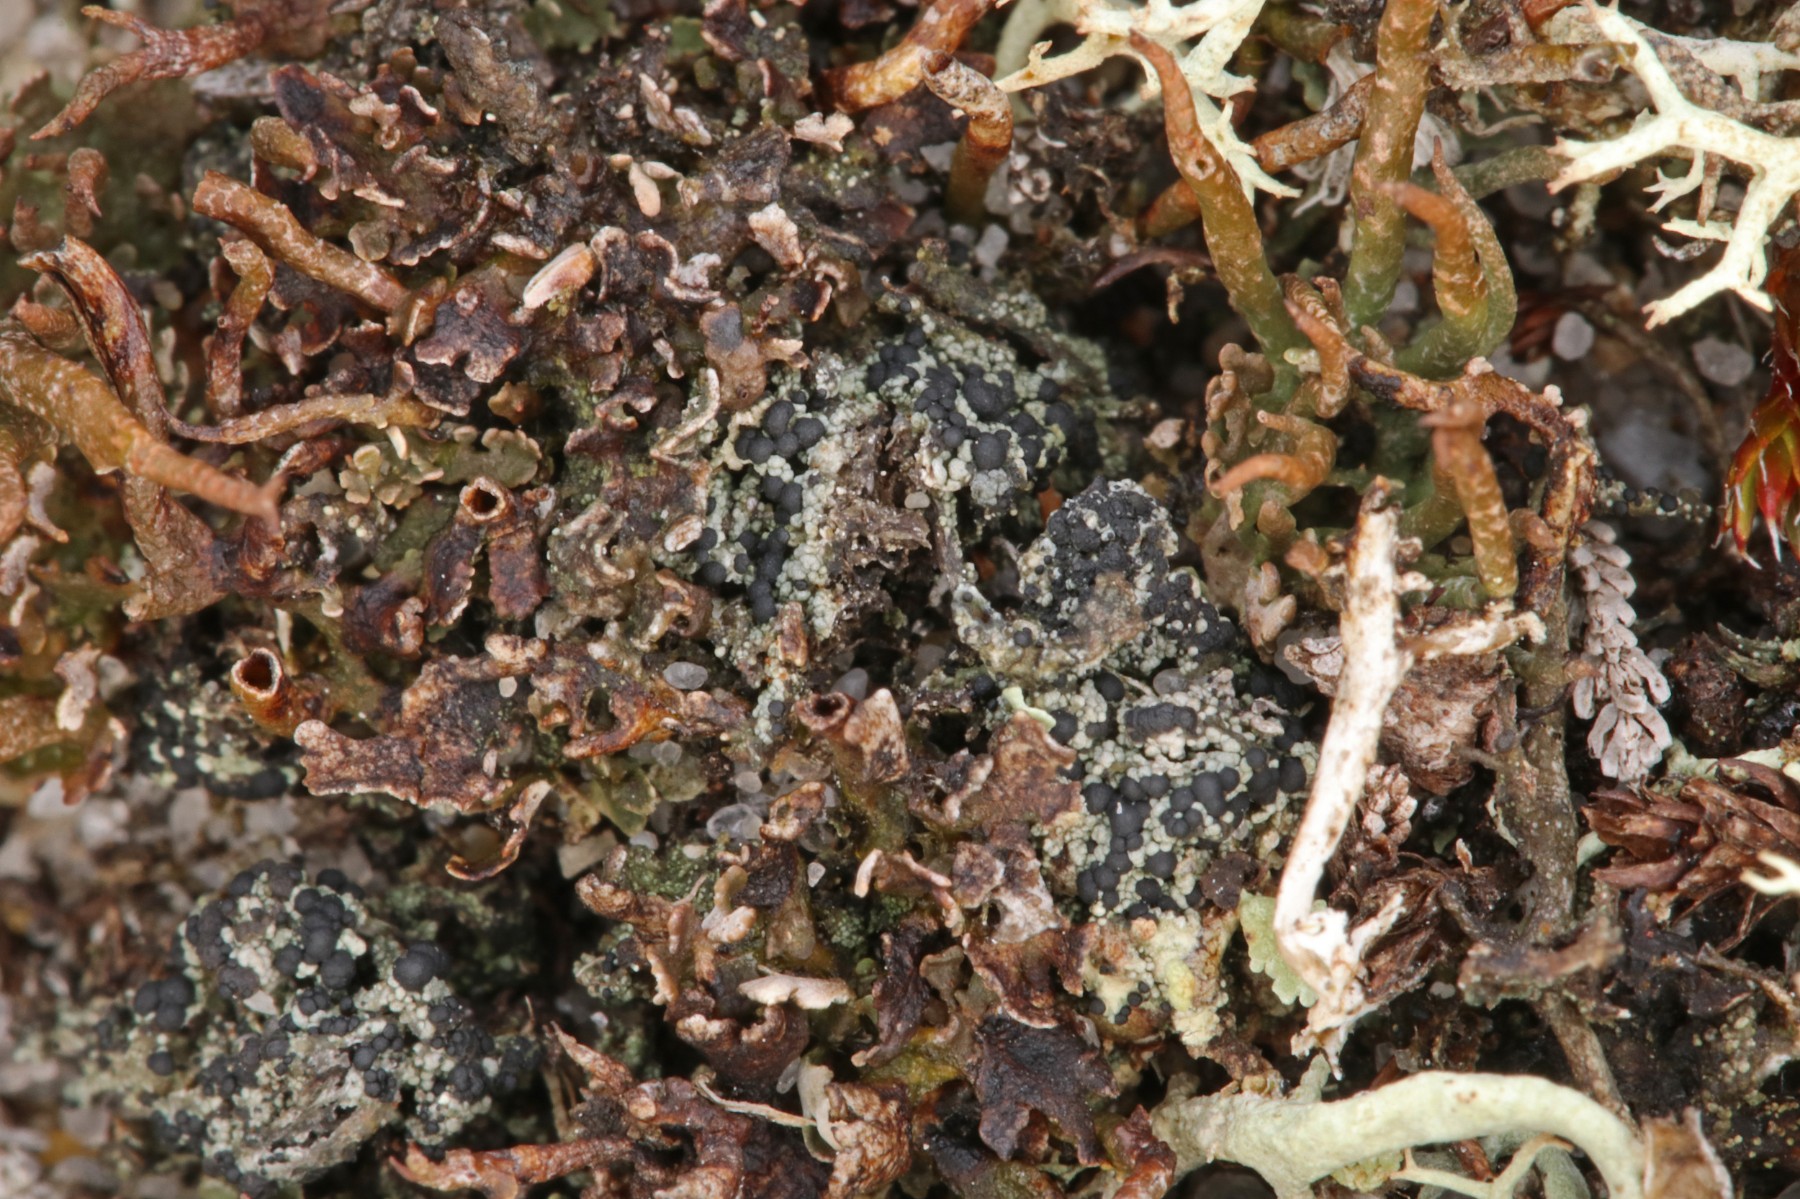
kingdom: Fungi
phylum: Ascomycota
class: Lecanoromycetes
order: Lecanorales
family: Byssolomataceae
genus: Micarea
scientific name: Micarea lignaria
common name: tørve-knaplav
